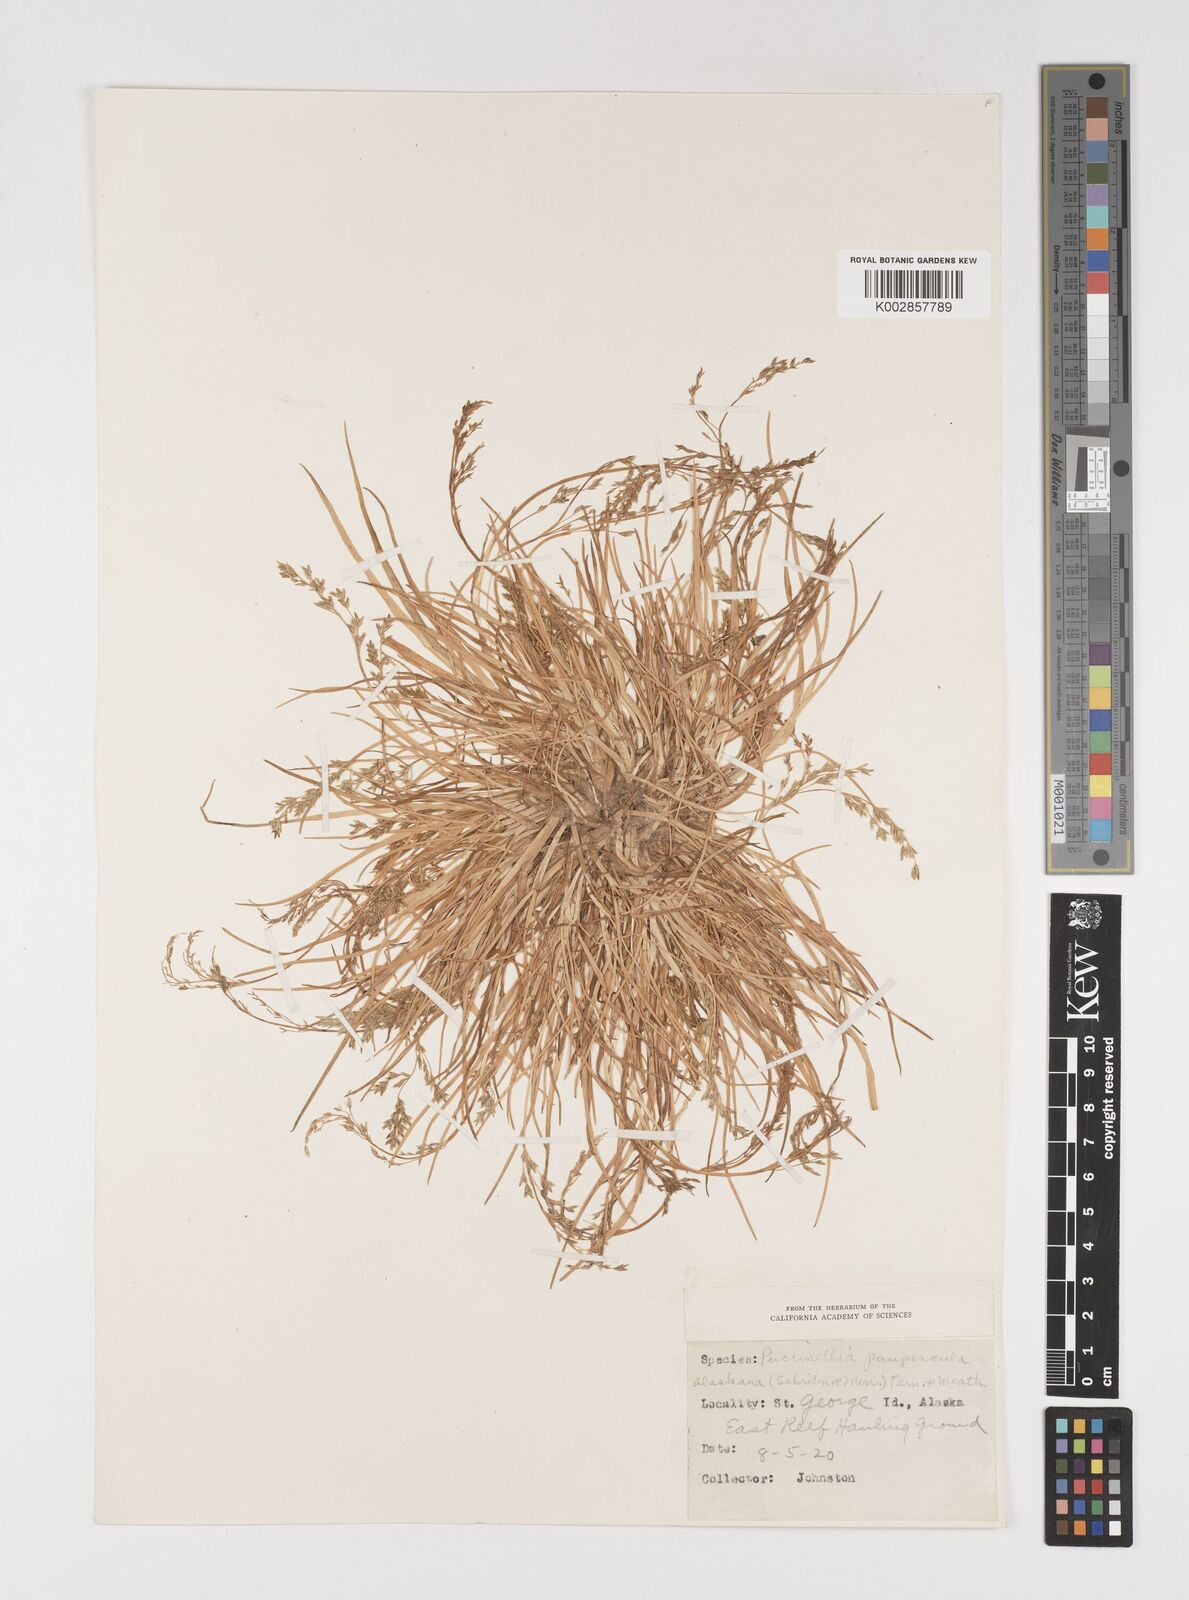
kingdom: Plantae
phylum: Tracheophyta
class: Liliopsida
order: Poales
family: Poaceae
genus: Puccinellia
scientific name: Puccinellia pumila
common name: Dwarf alkaligrass
